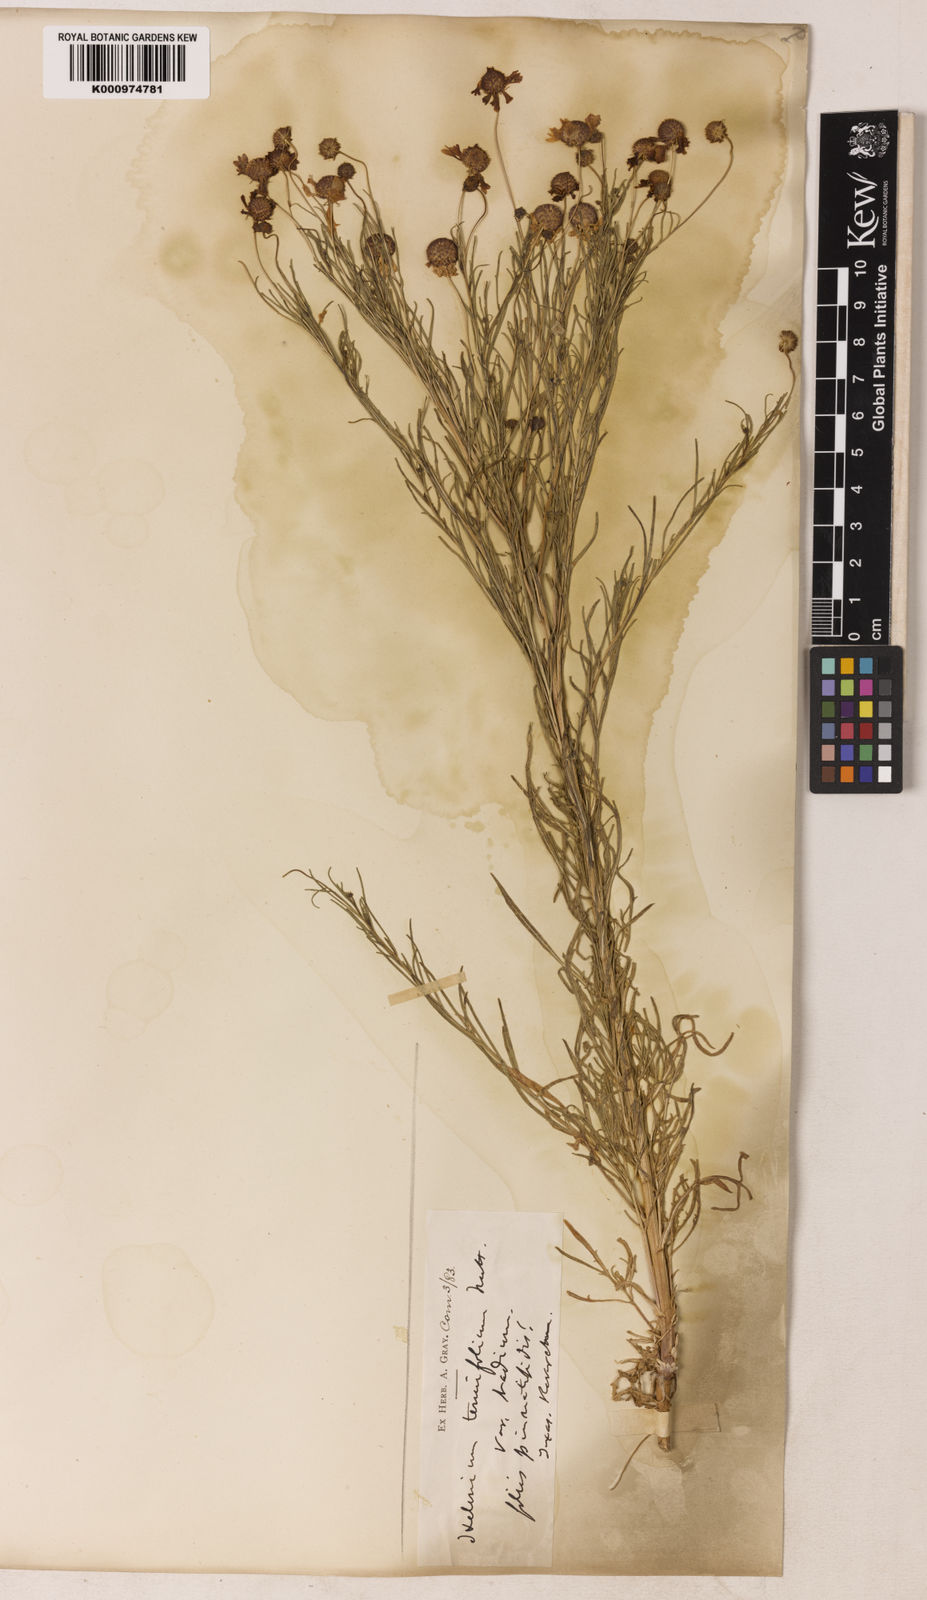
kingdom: Plantae
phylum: Tracheophyta
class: Magnoliopsida
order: Asterales
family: Asteraceae
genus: Helenium
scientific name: Helenium amarum
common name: Bitter sneezeweed
